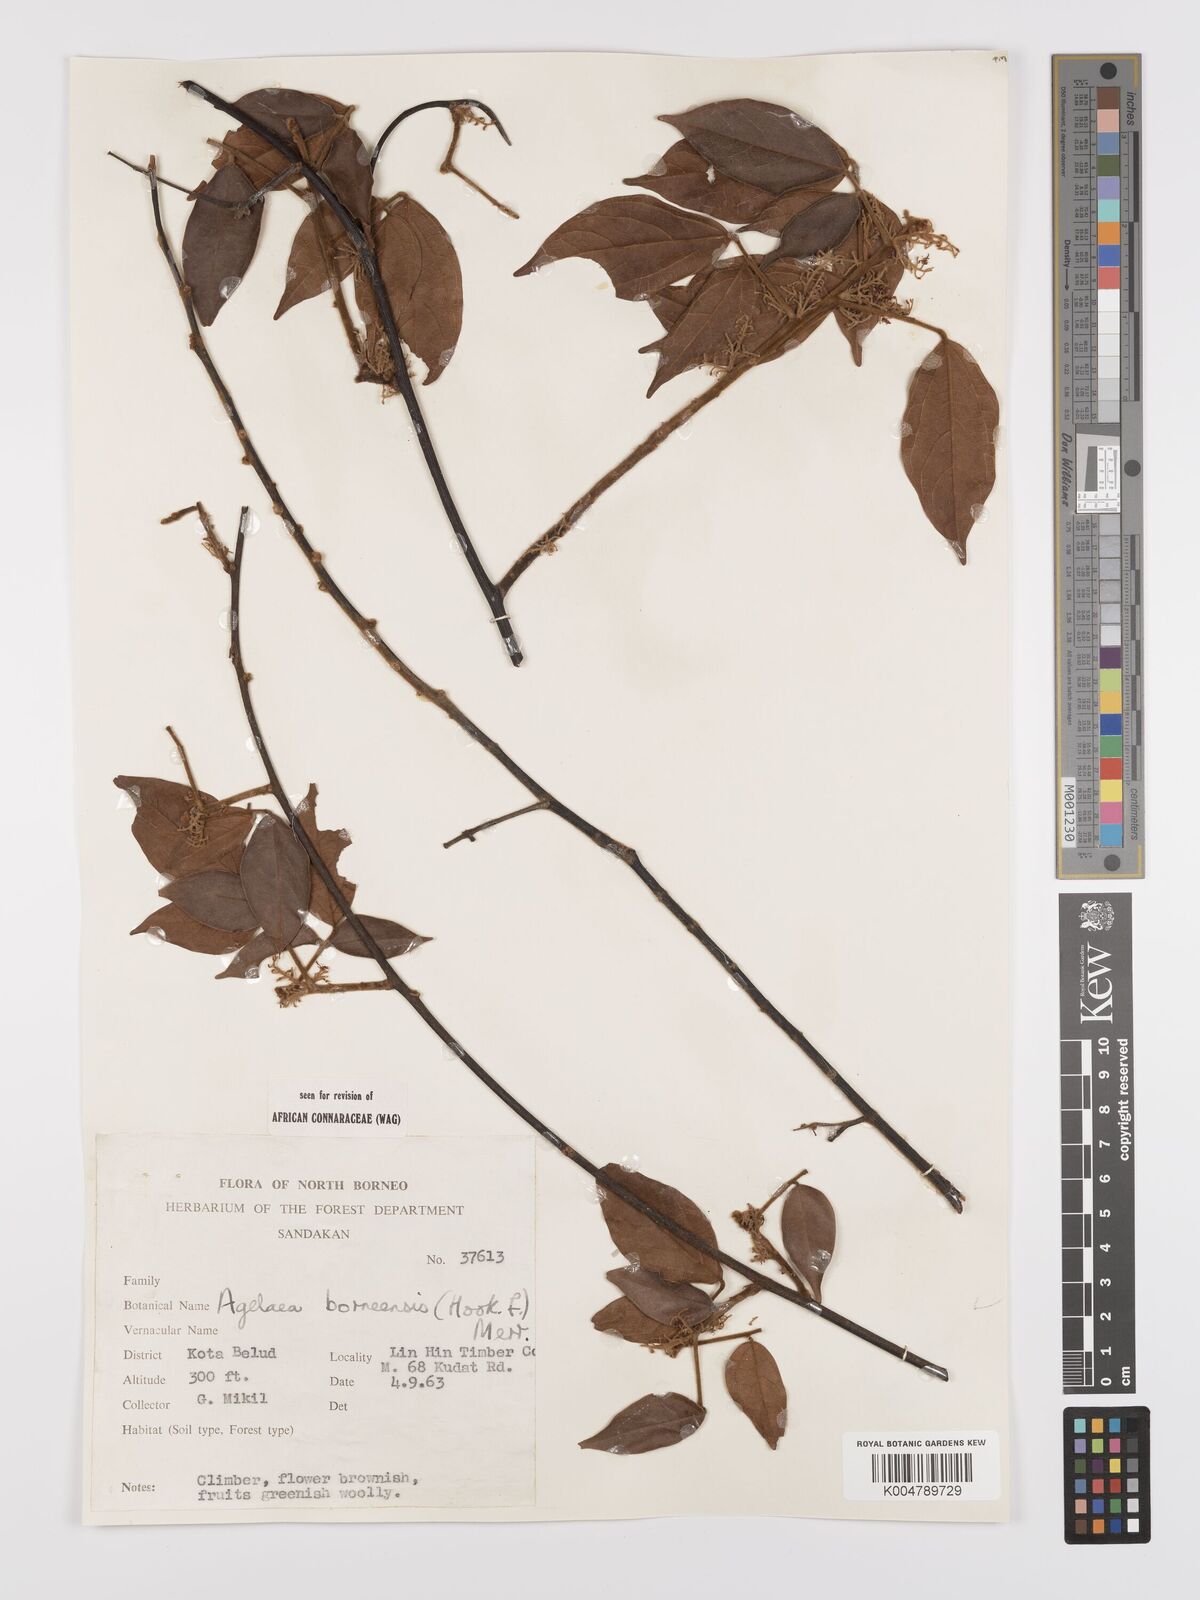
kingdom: Plantae
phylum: Tracheophyta
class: Magnoliopsida
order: Oxalidales
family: Connaraceae
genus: Agelaea
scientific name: Agelaea borneensis
